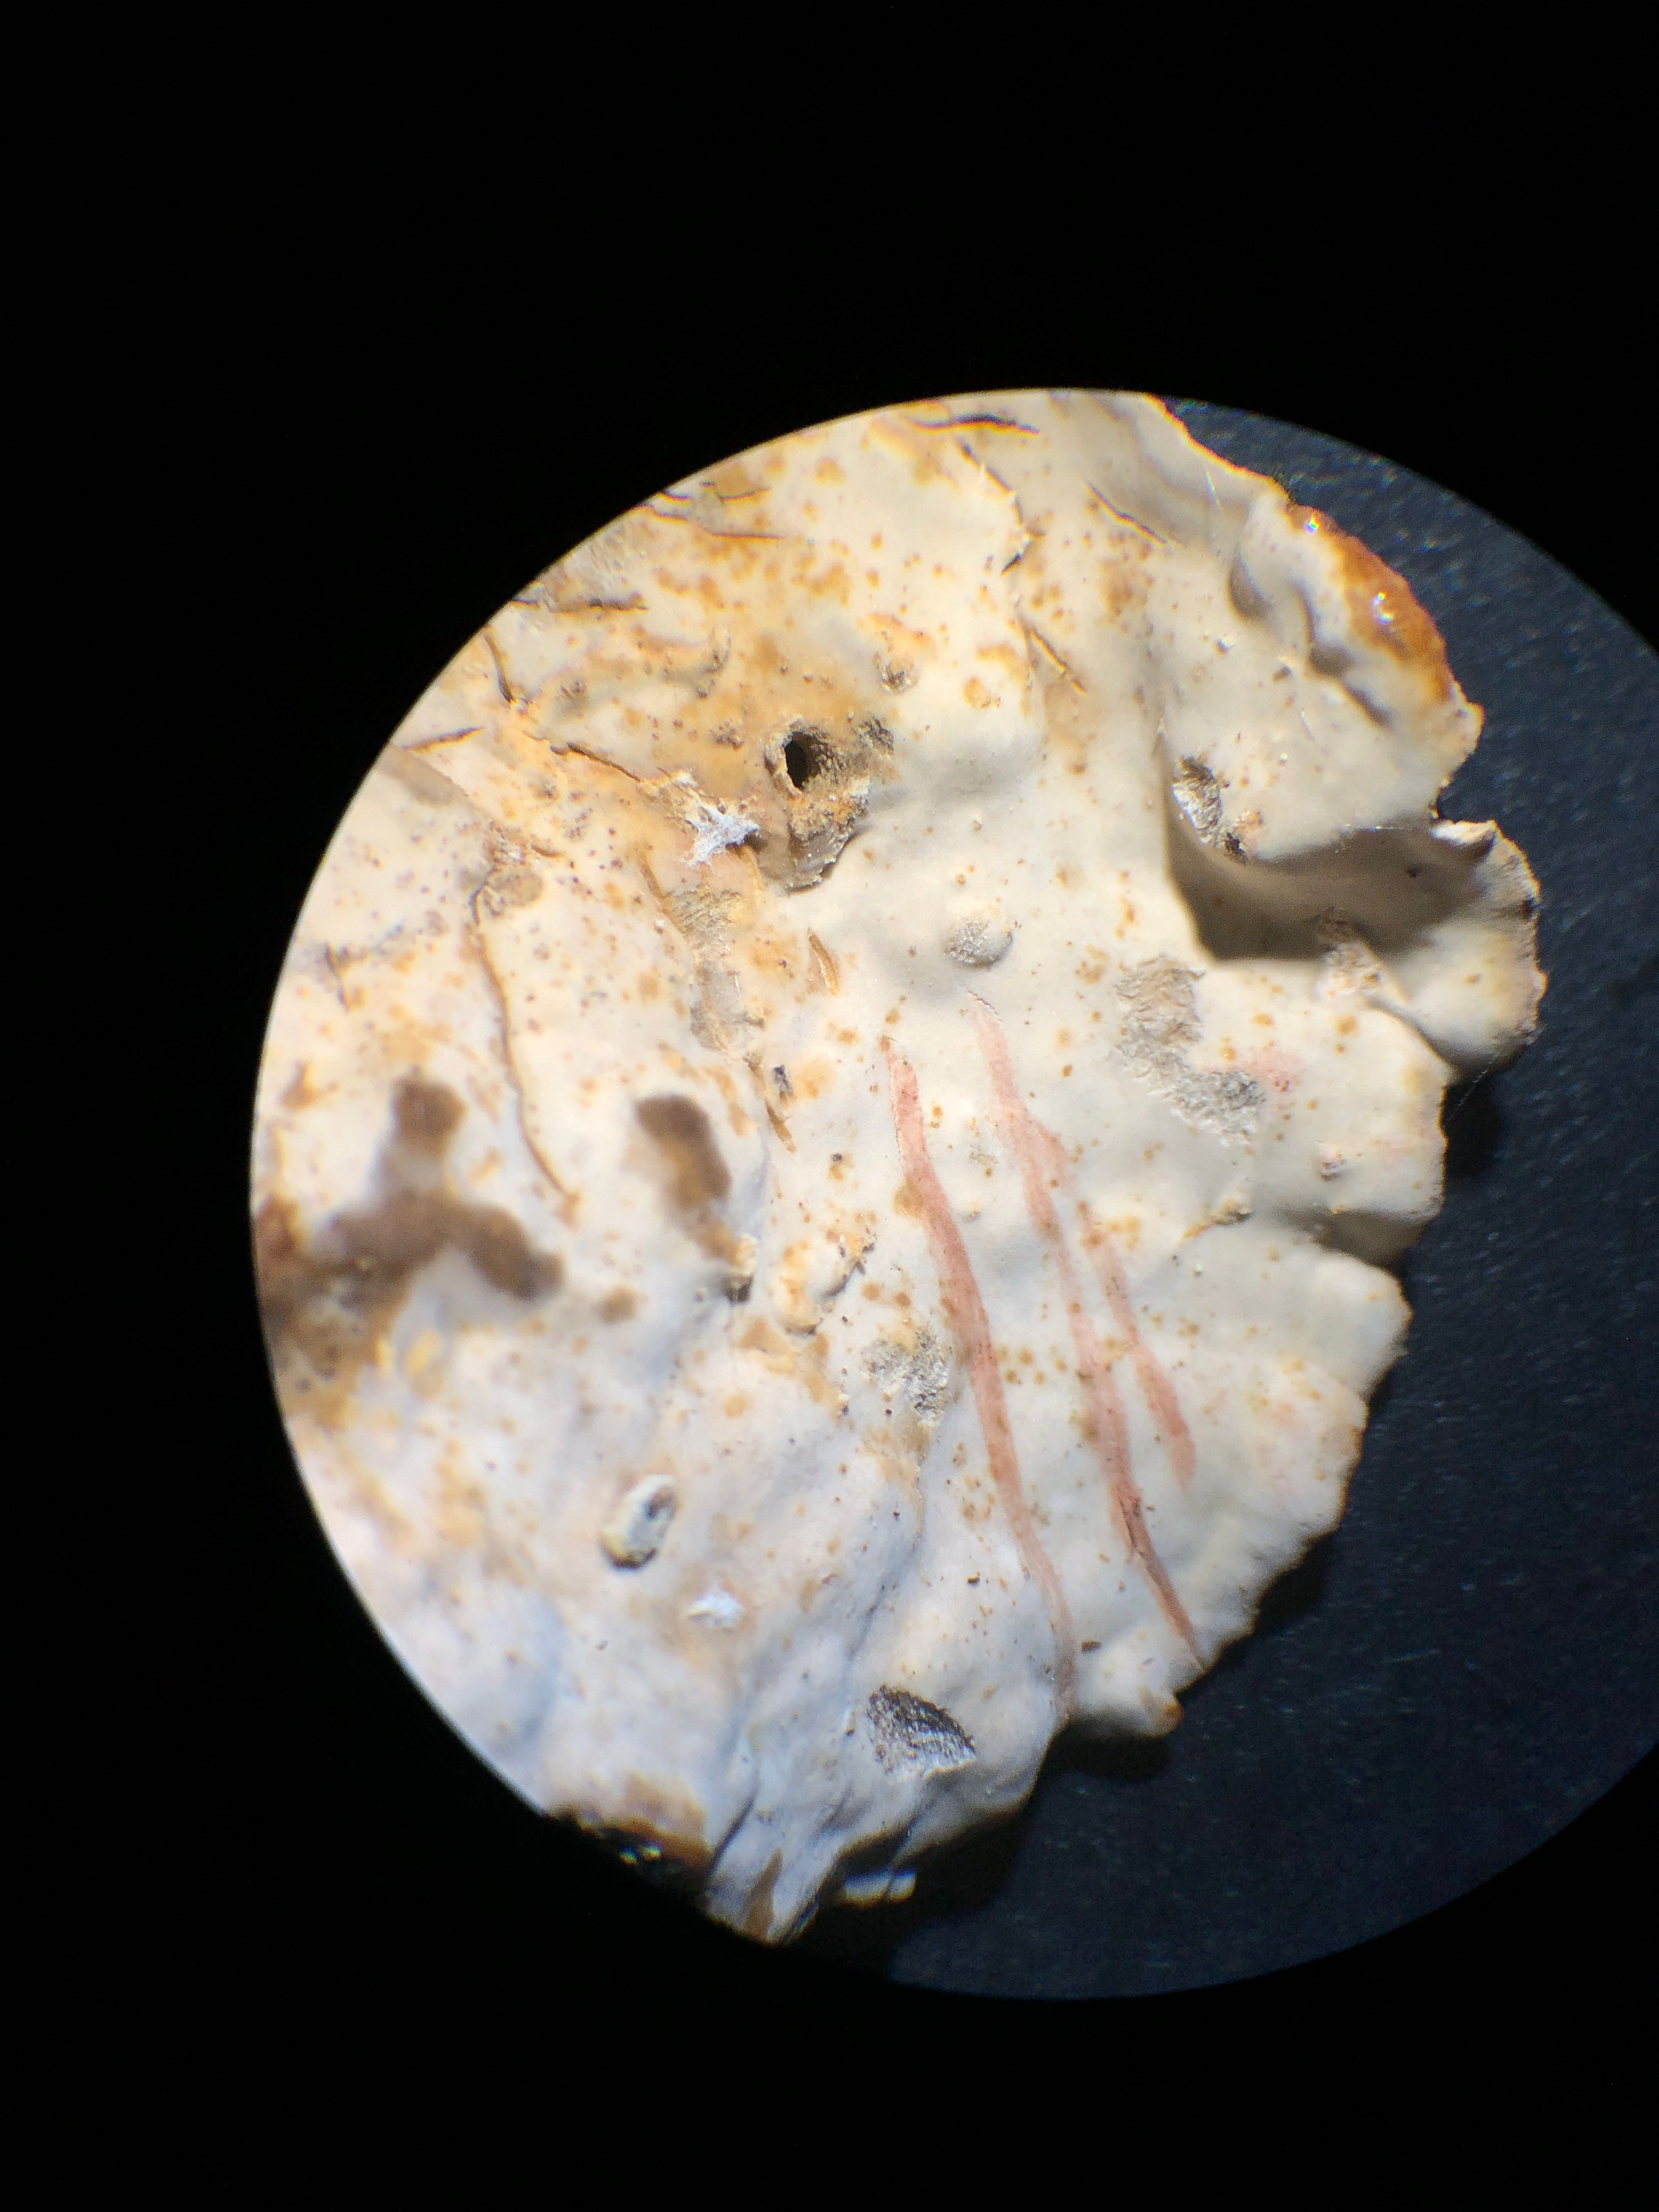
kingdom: Fungi
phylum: Basidiomycota
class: Agaricomycetes
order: Russulales
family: Stereaceae
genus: Stereum
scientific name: Stereum rugosum
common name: rynket lædersvamp
